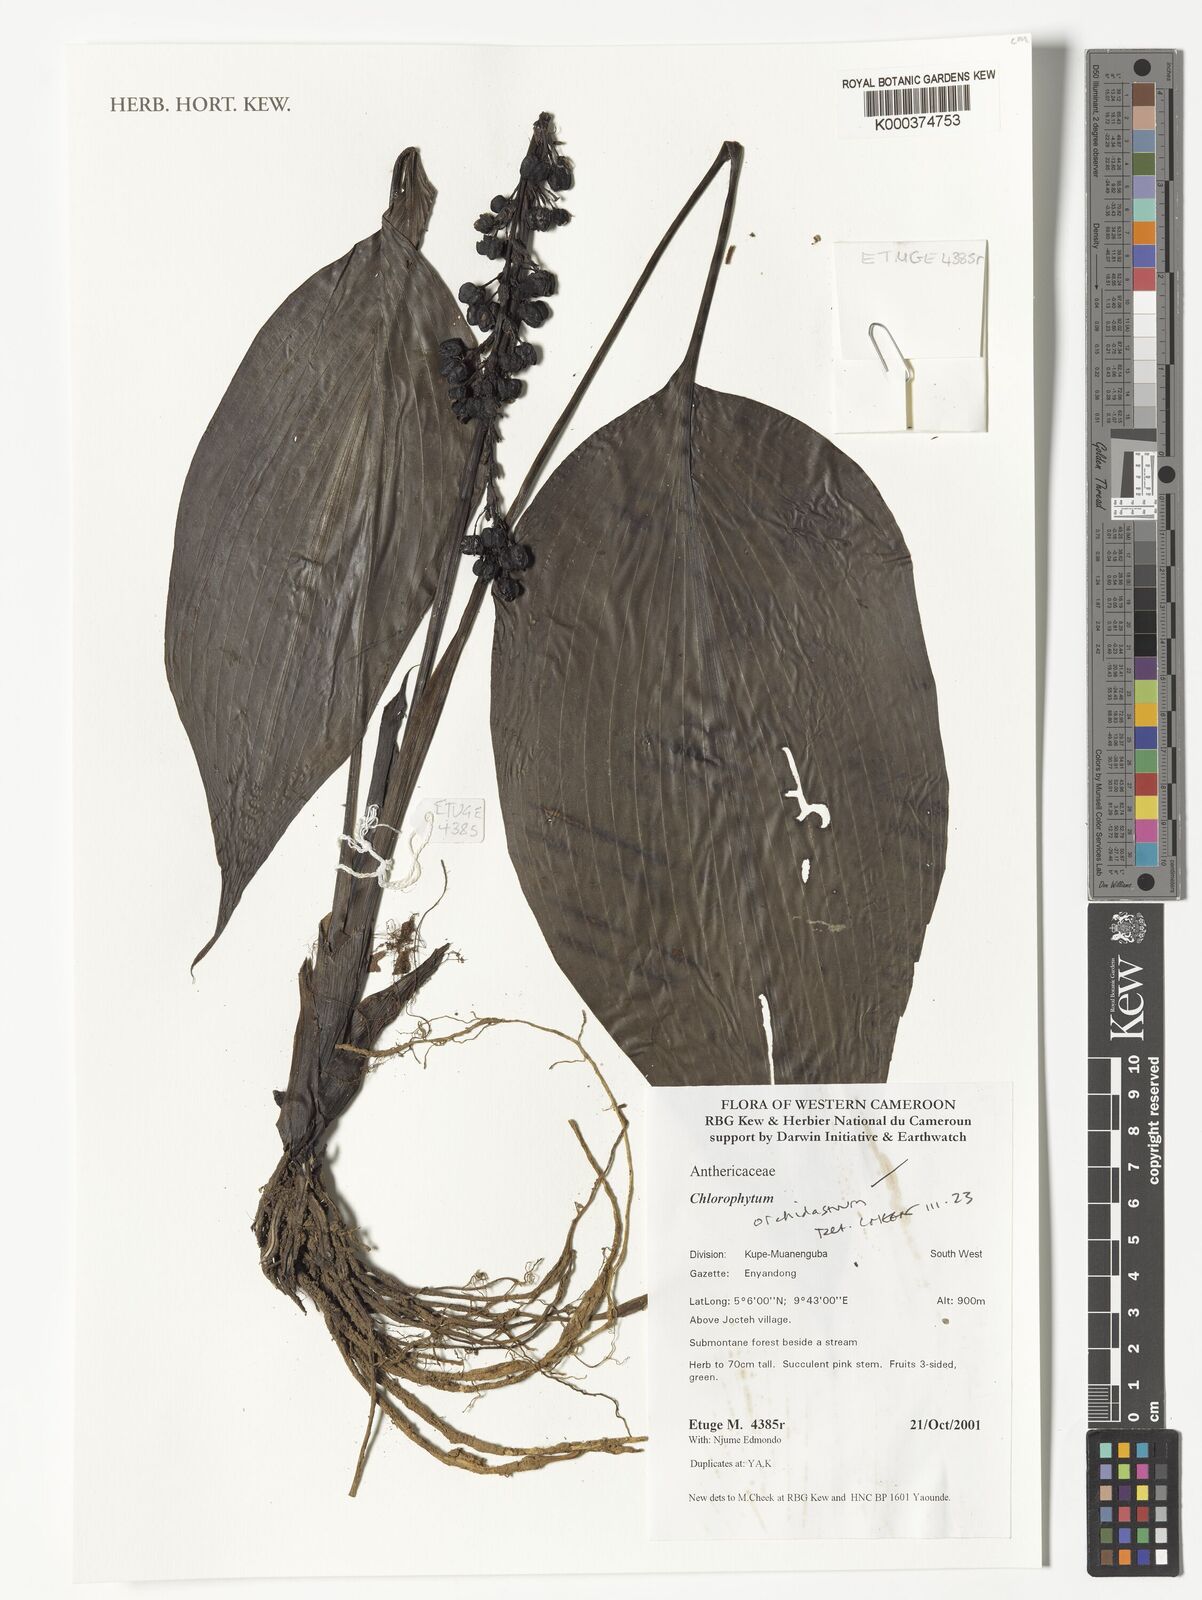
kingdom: Plantae
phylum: Tracheophyta
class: Liliopsida
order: Asparagales
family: Asparagaceae
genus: Chlorophytum
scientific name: Chlorophytum orchidastrum
